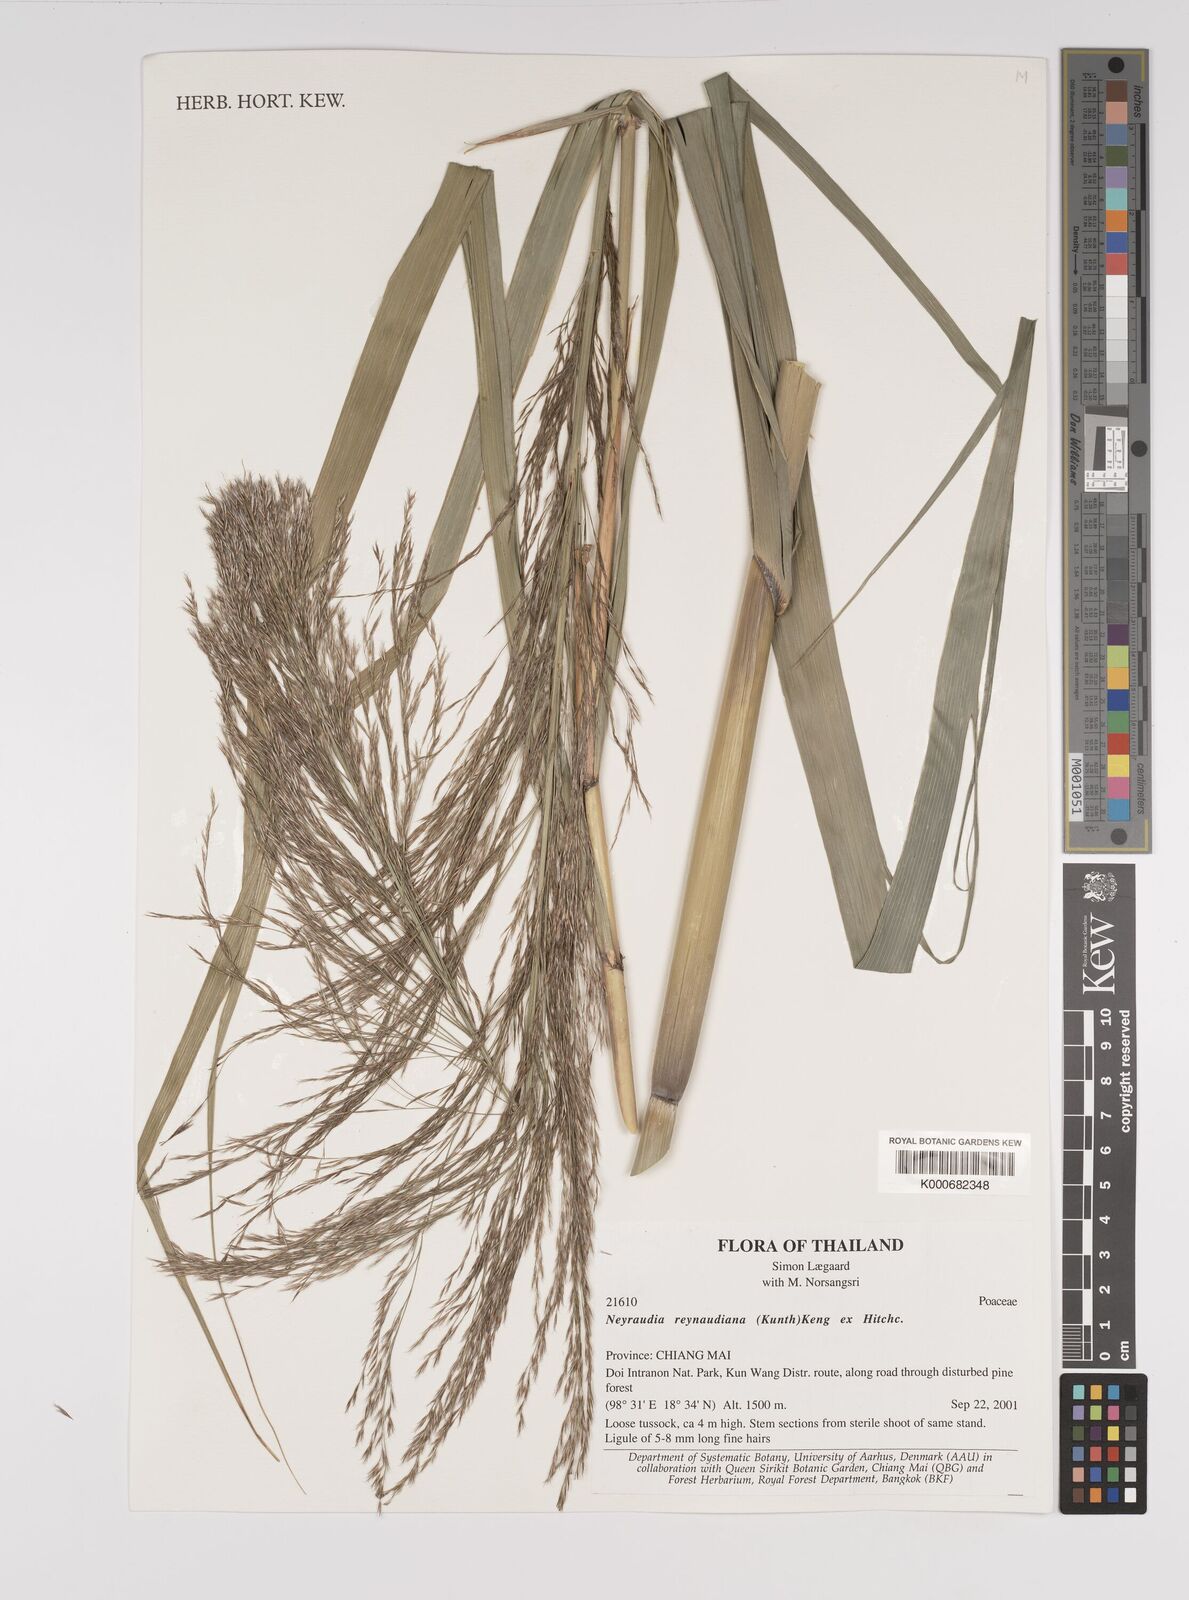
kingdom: Plantae
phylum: Tracheophyta
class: Liliopsida
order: Poales
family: Poaceae
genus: Neyraudia
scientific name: Neyraudia reynaudiana
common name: Silkreed
